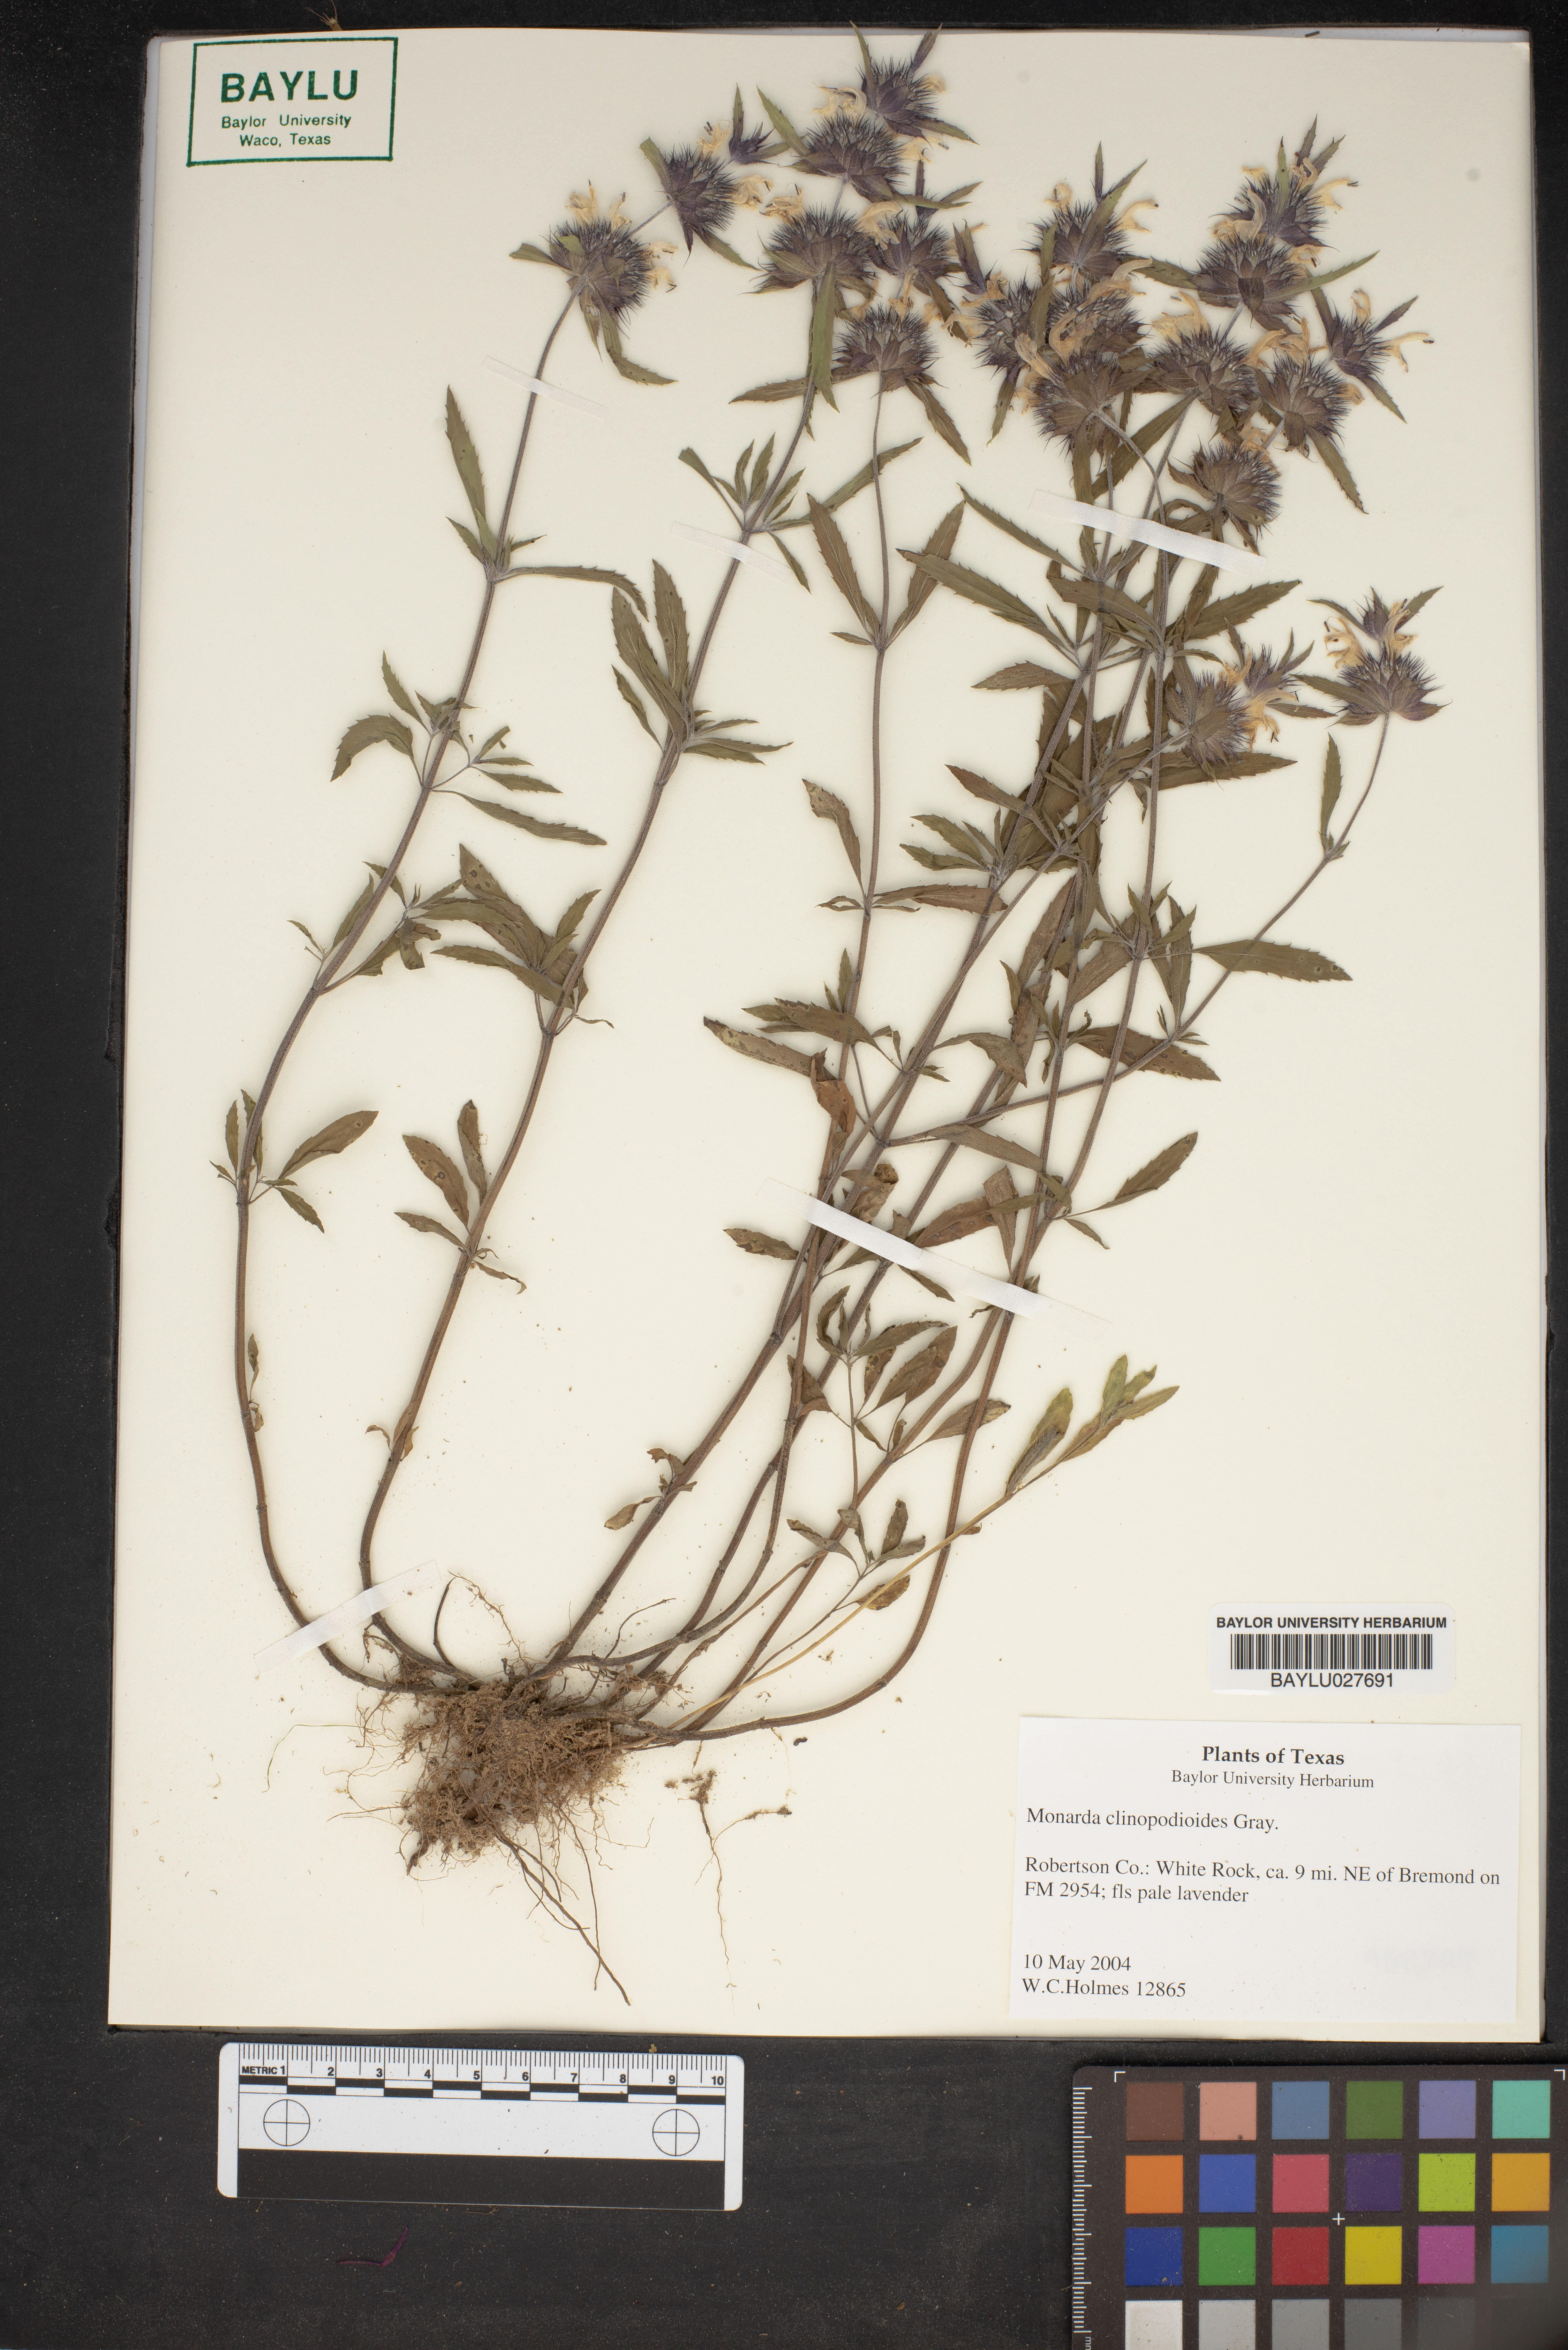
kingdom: Plantae
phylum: Tracheophyta
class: Magnoliopsida
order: Lamiales
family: Lamiaceae
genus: Monarda
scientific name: Monarda clinopodioides
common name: Basil beebalm
